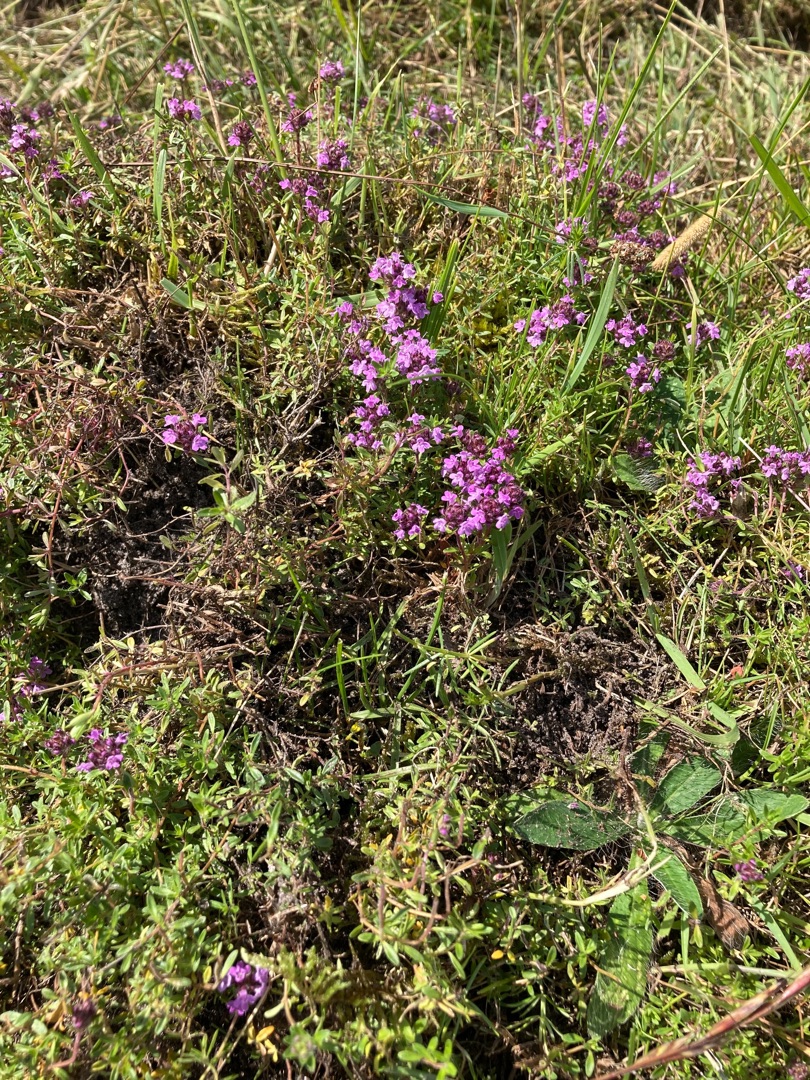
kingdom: Plantae
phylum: Tracheophyta
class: Magnoliopsida
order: Lamiales
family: Lamiaceae
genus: Thymus
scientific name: Thymus serpyllum
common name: Smalbladet timian
